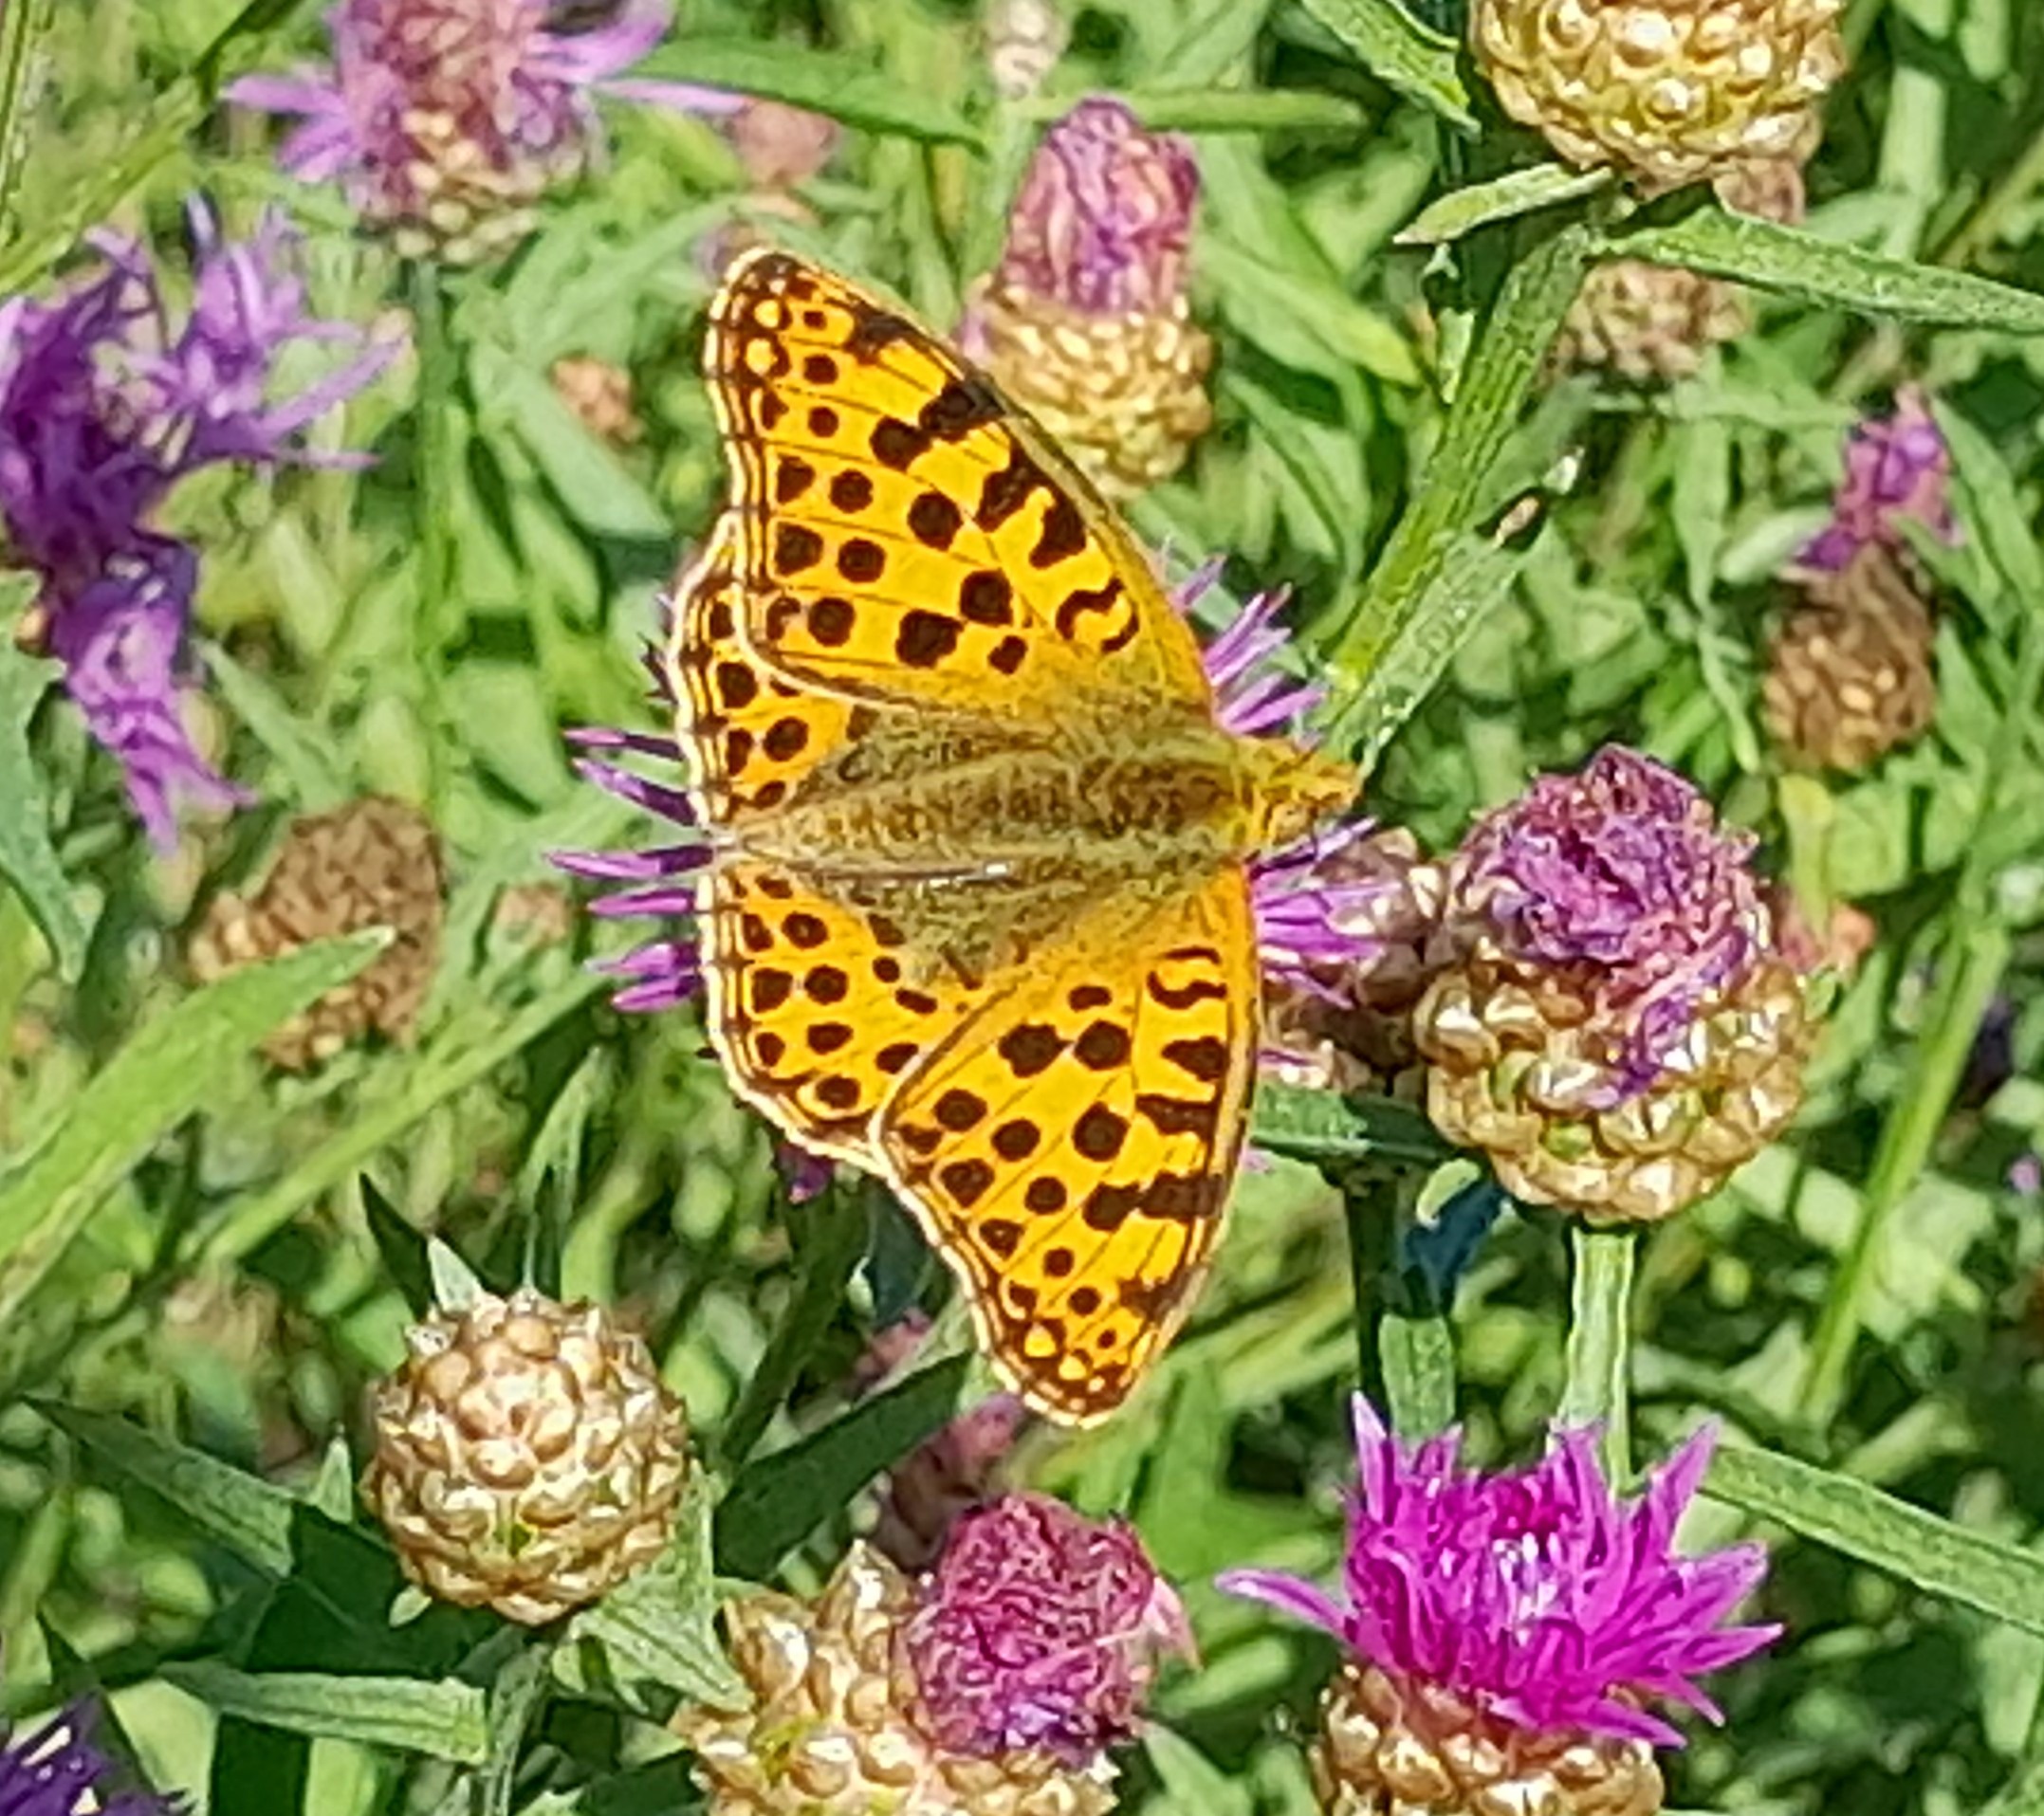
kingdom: Animalia
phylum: Arthropoda
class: Insecta
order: Lepidoptera
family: Nymphalidae
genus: Issoria
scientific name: Issoria lathonia
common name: Storplettet perlemorsommerfugl
